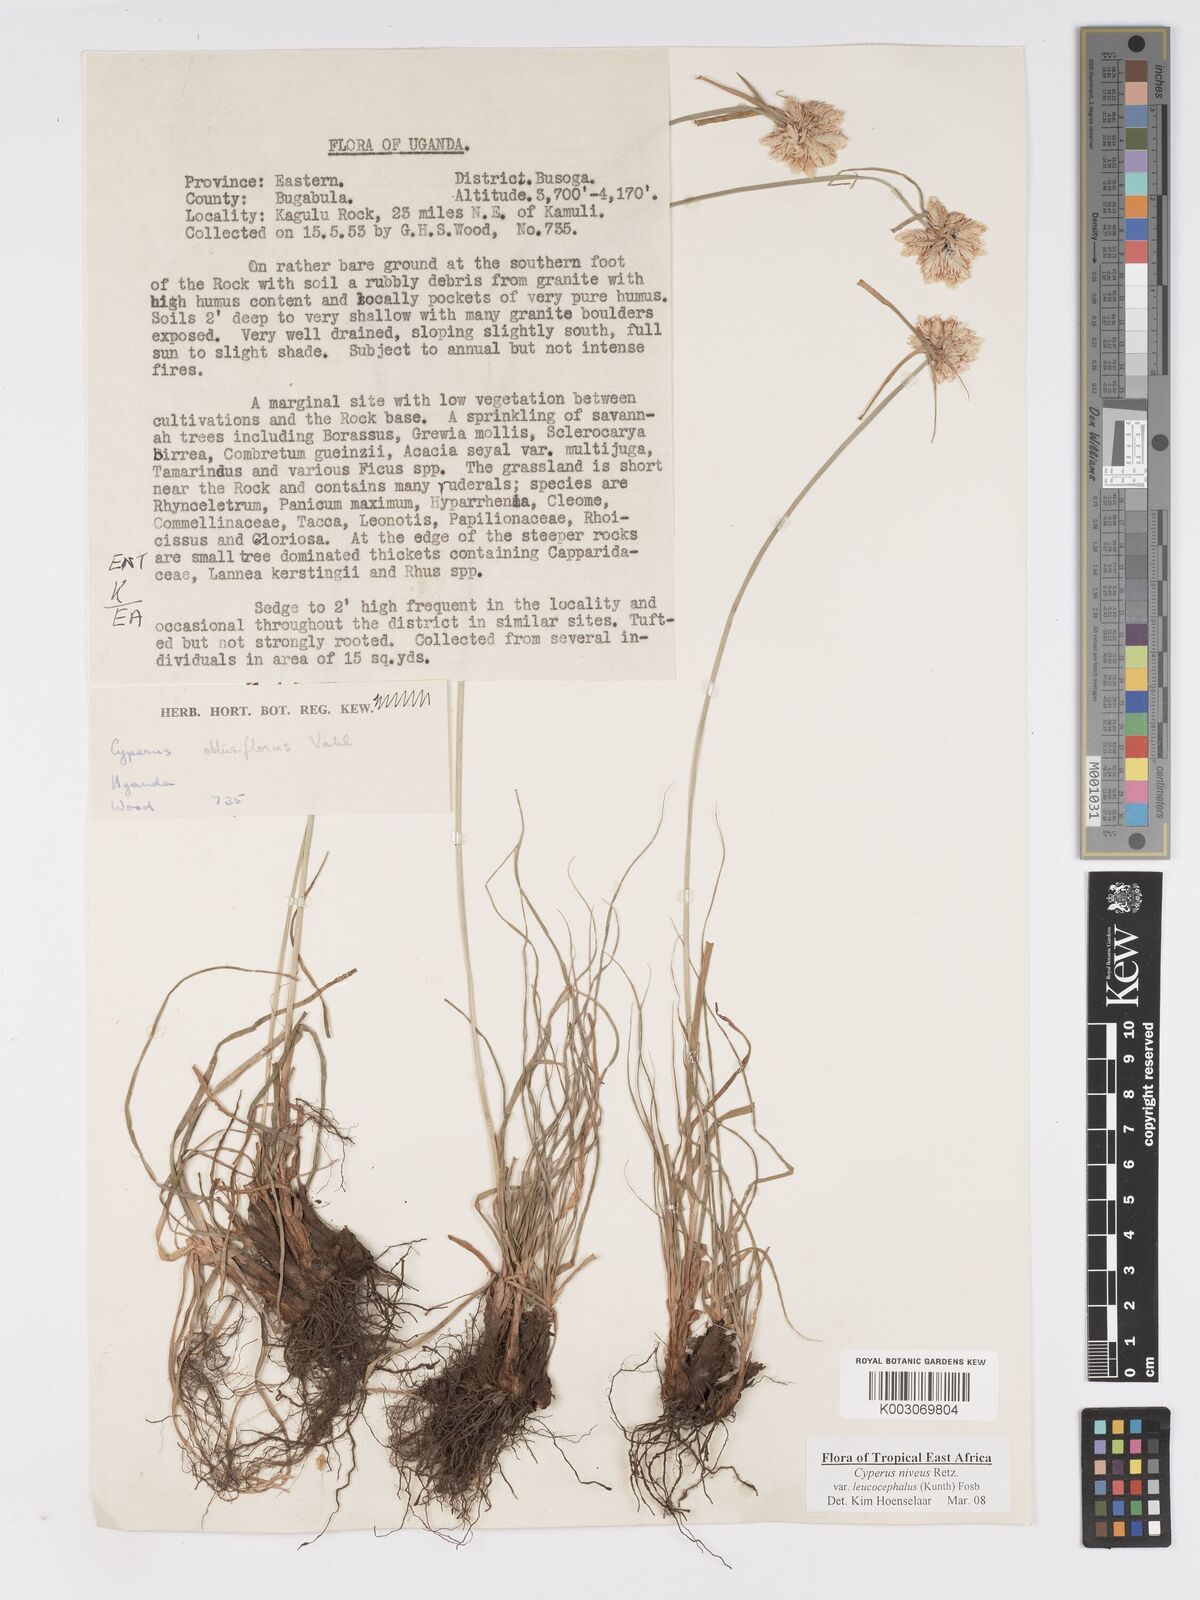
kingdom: Plantae
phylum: Tracheophyta
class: Liliopsida
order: Poales
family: Cyperaceae
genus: Cyperus
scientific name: Cyperus niveus
